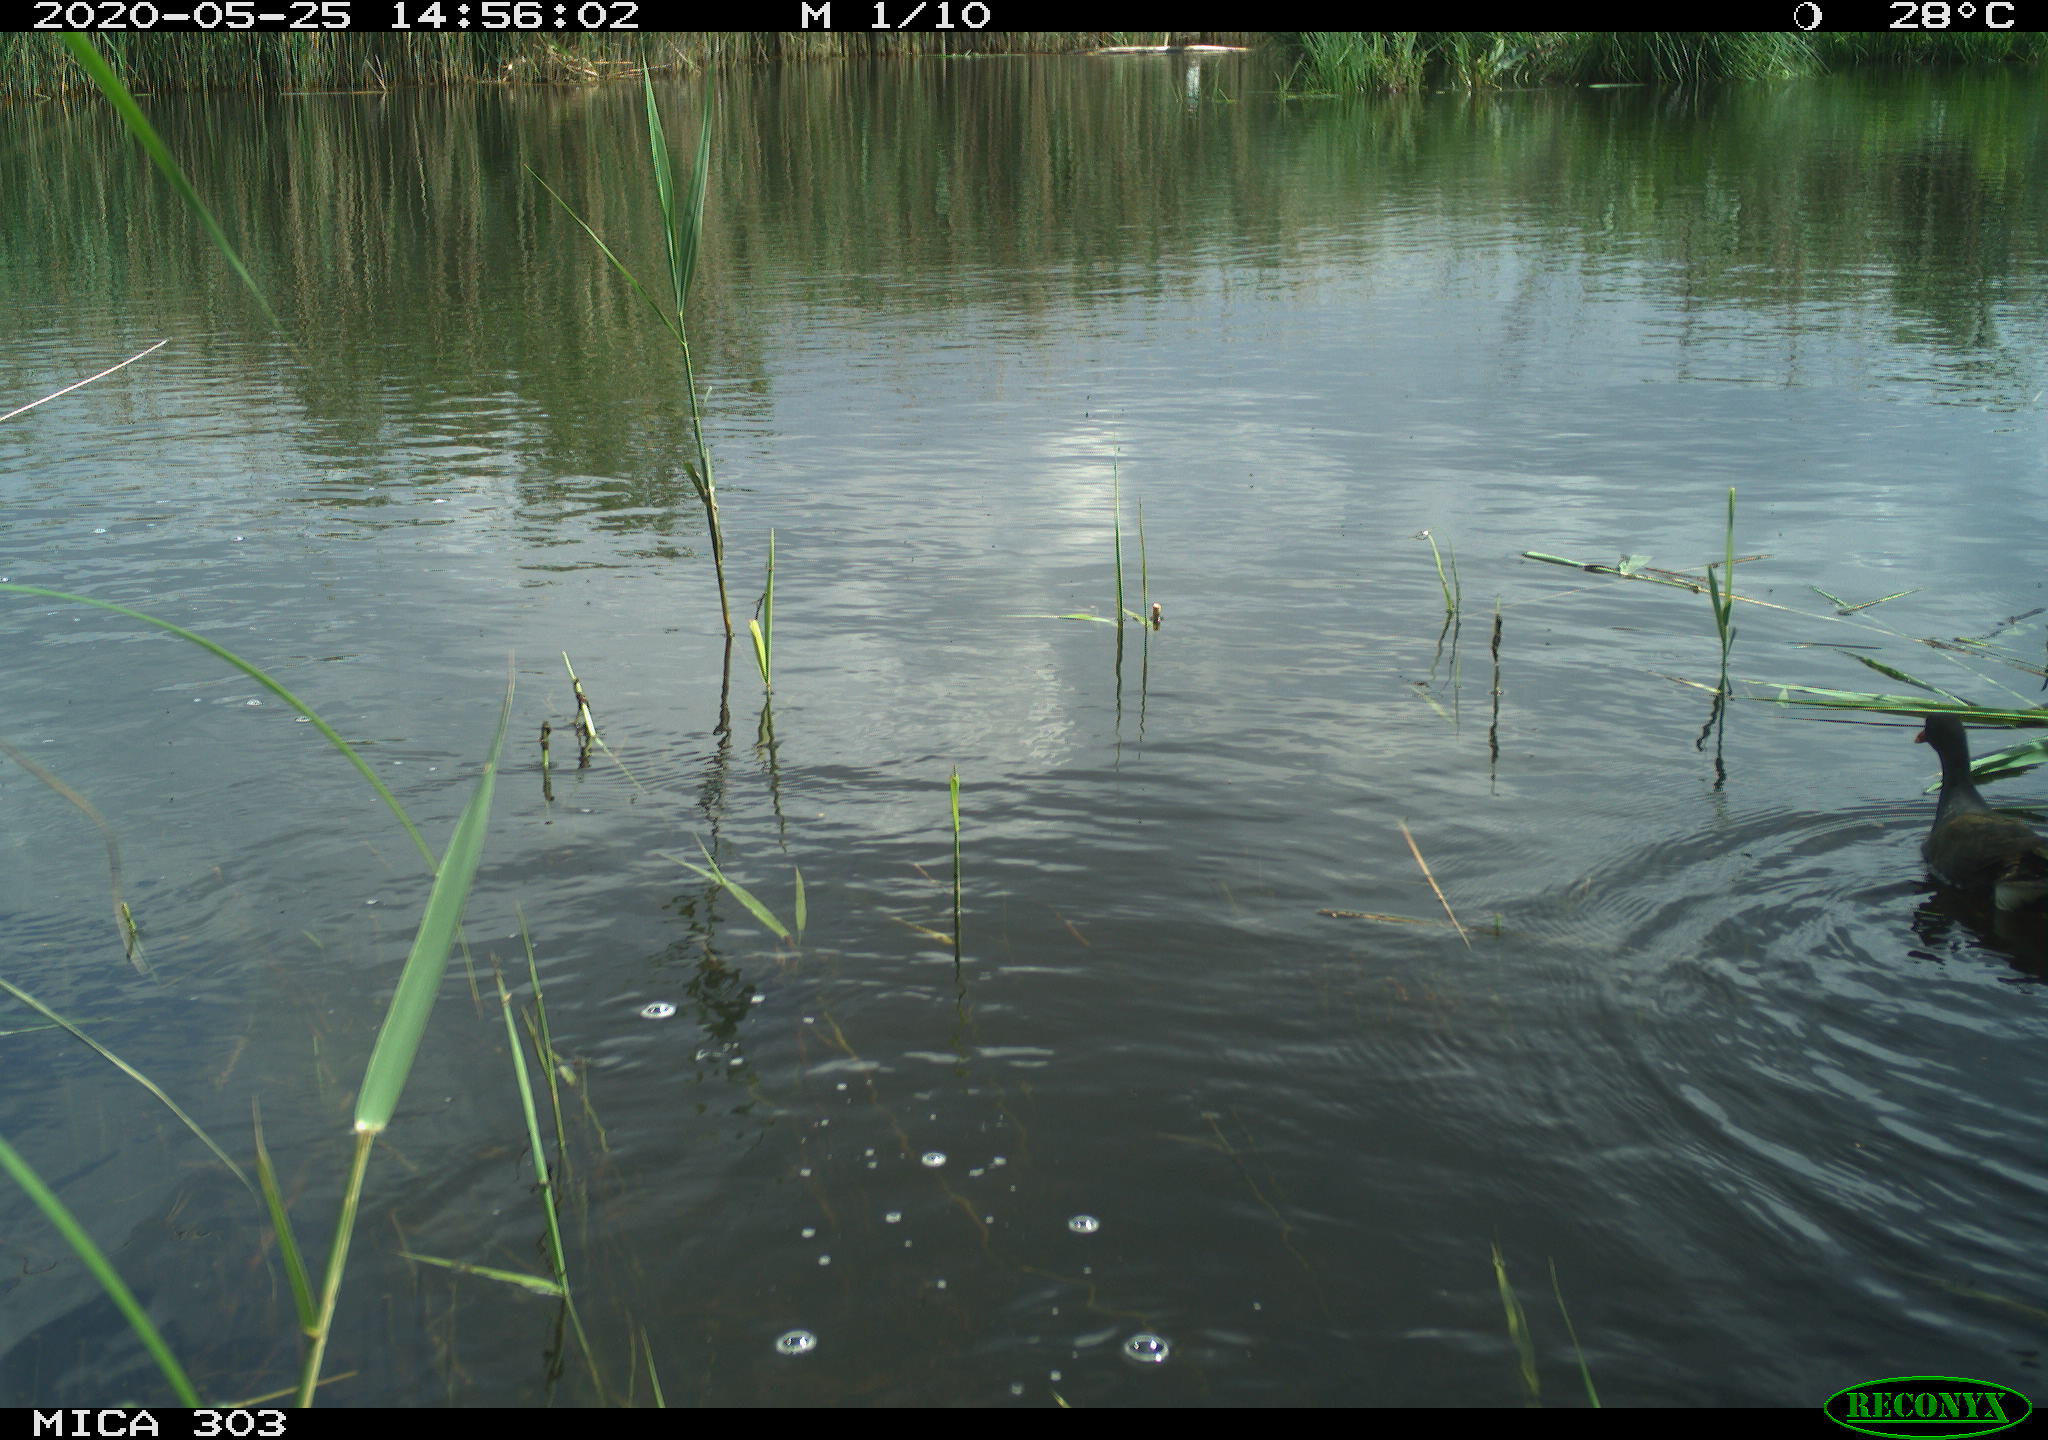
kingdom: Animalia
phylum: Chordata
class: Aves
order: Gruiformes
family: Rallidae
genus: Gallinula
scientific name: Gallinula chloropus
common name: Common moorhen
